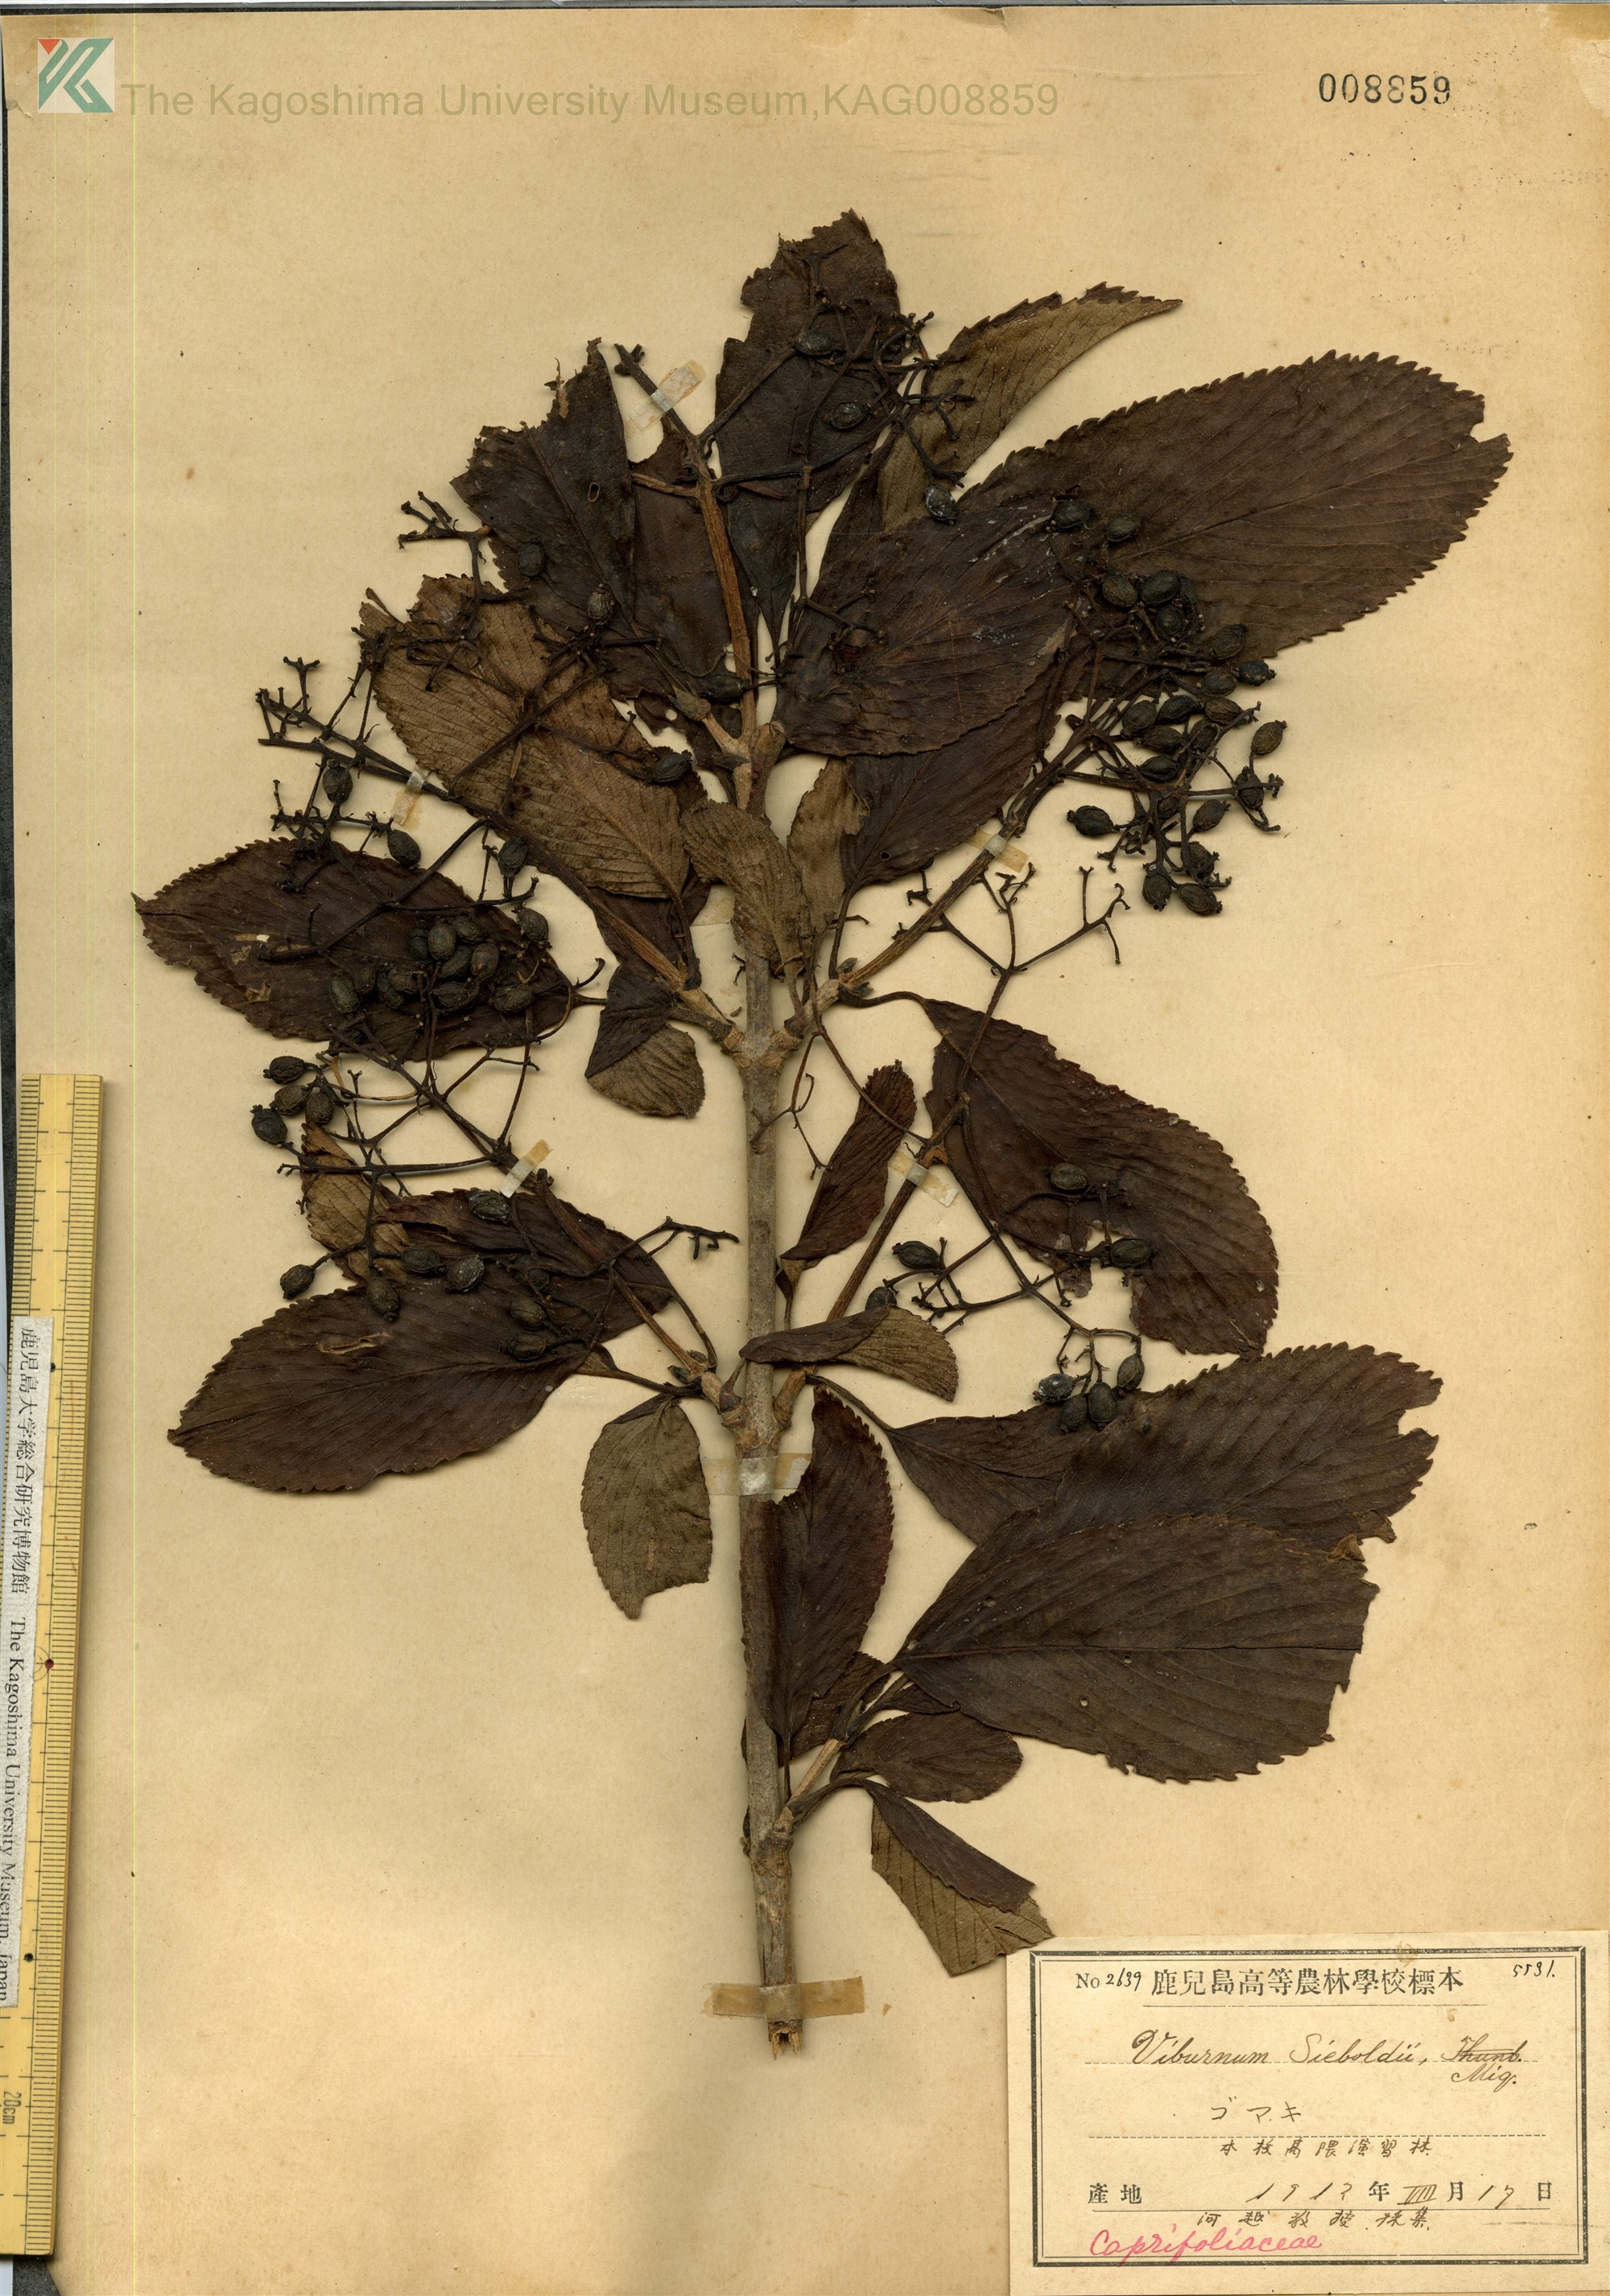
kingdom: Plantae
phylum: Tracheophyta
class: Magnoliopsida
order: Dipsacales
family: Viburnaceae
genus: Viburnum
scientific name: Viburnum propinquum
